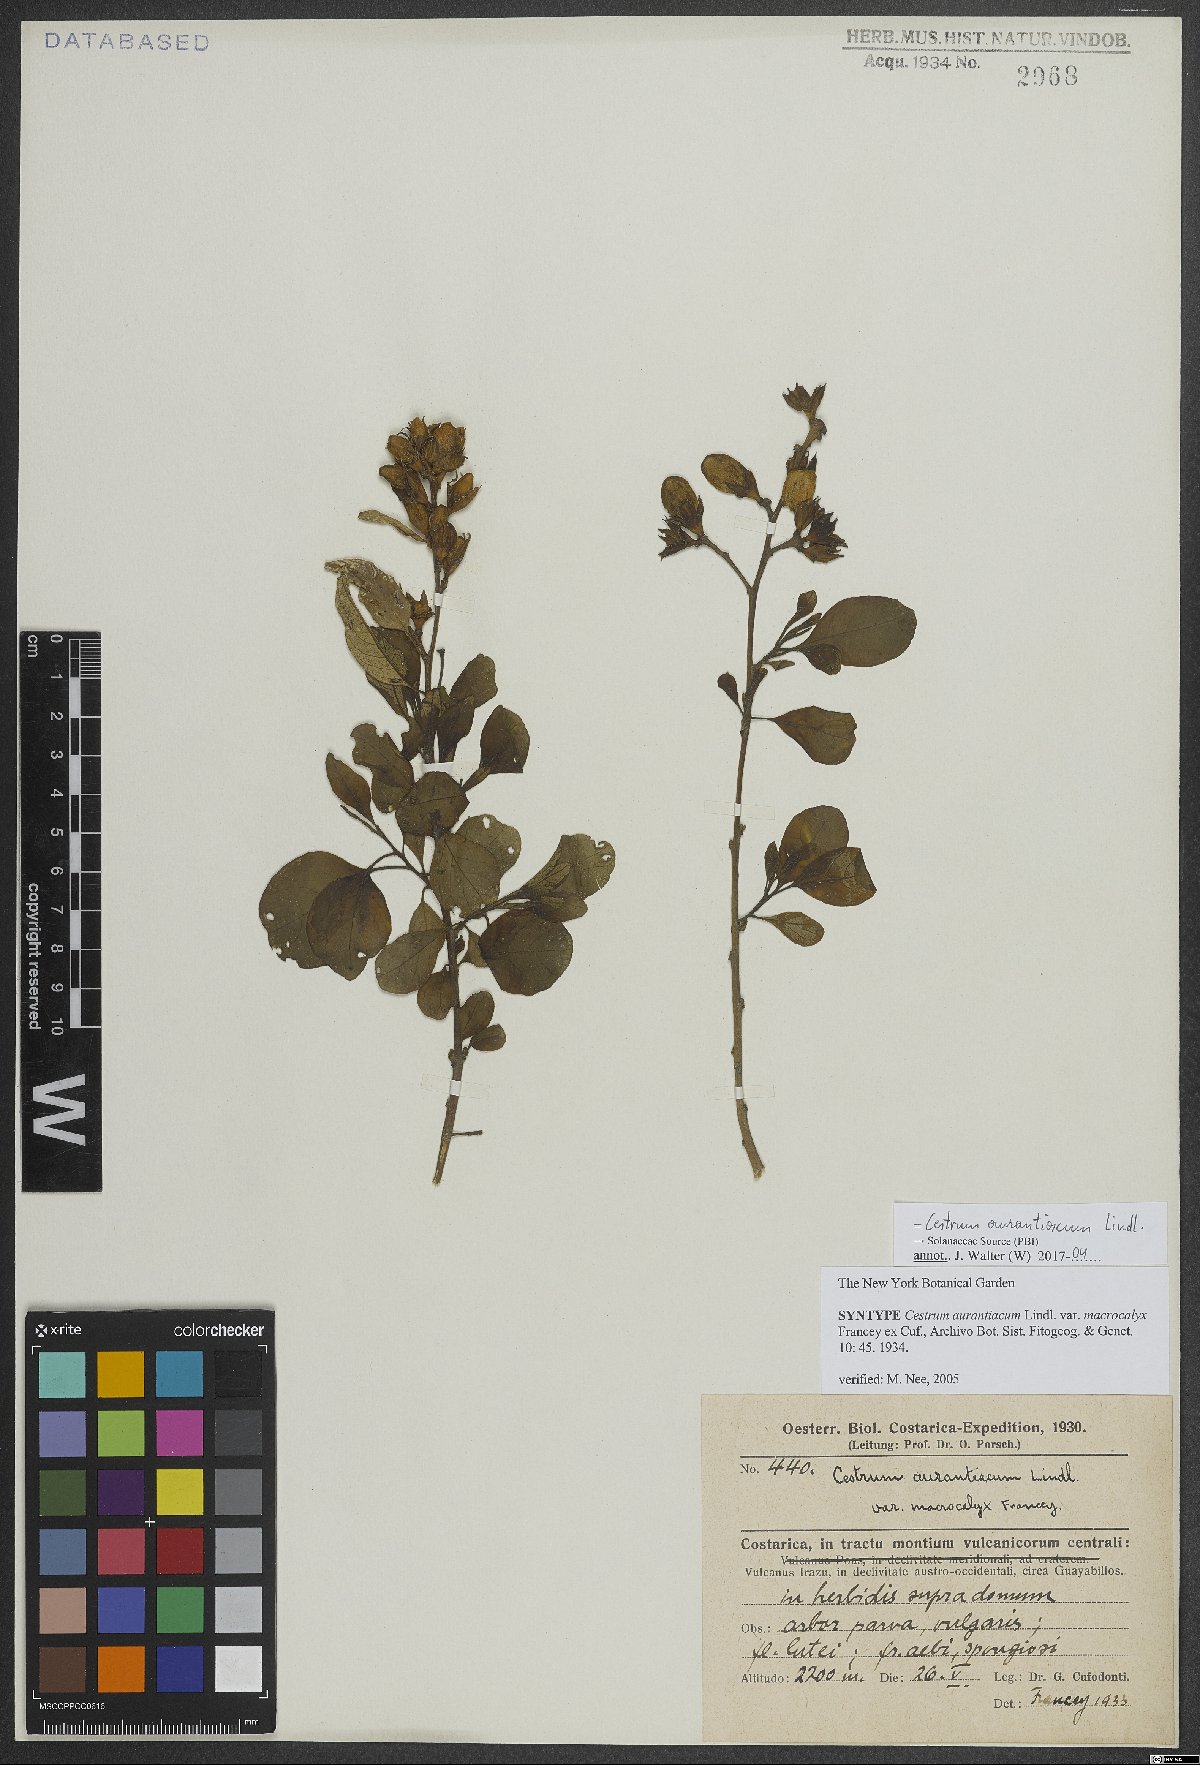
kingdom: Plantae
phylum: Tracheophyta
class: Magnoliopsida
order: Solanales
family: Solanaceae
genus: Cestrum
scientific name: Cestrum aurantiacum
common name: Orange cestrum
